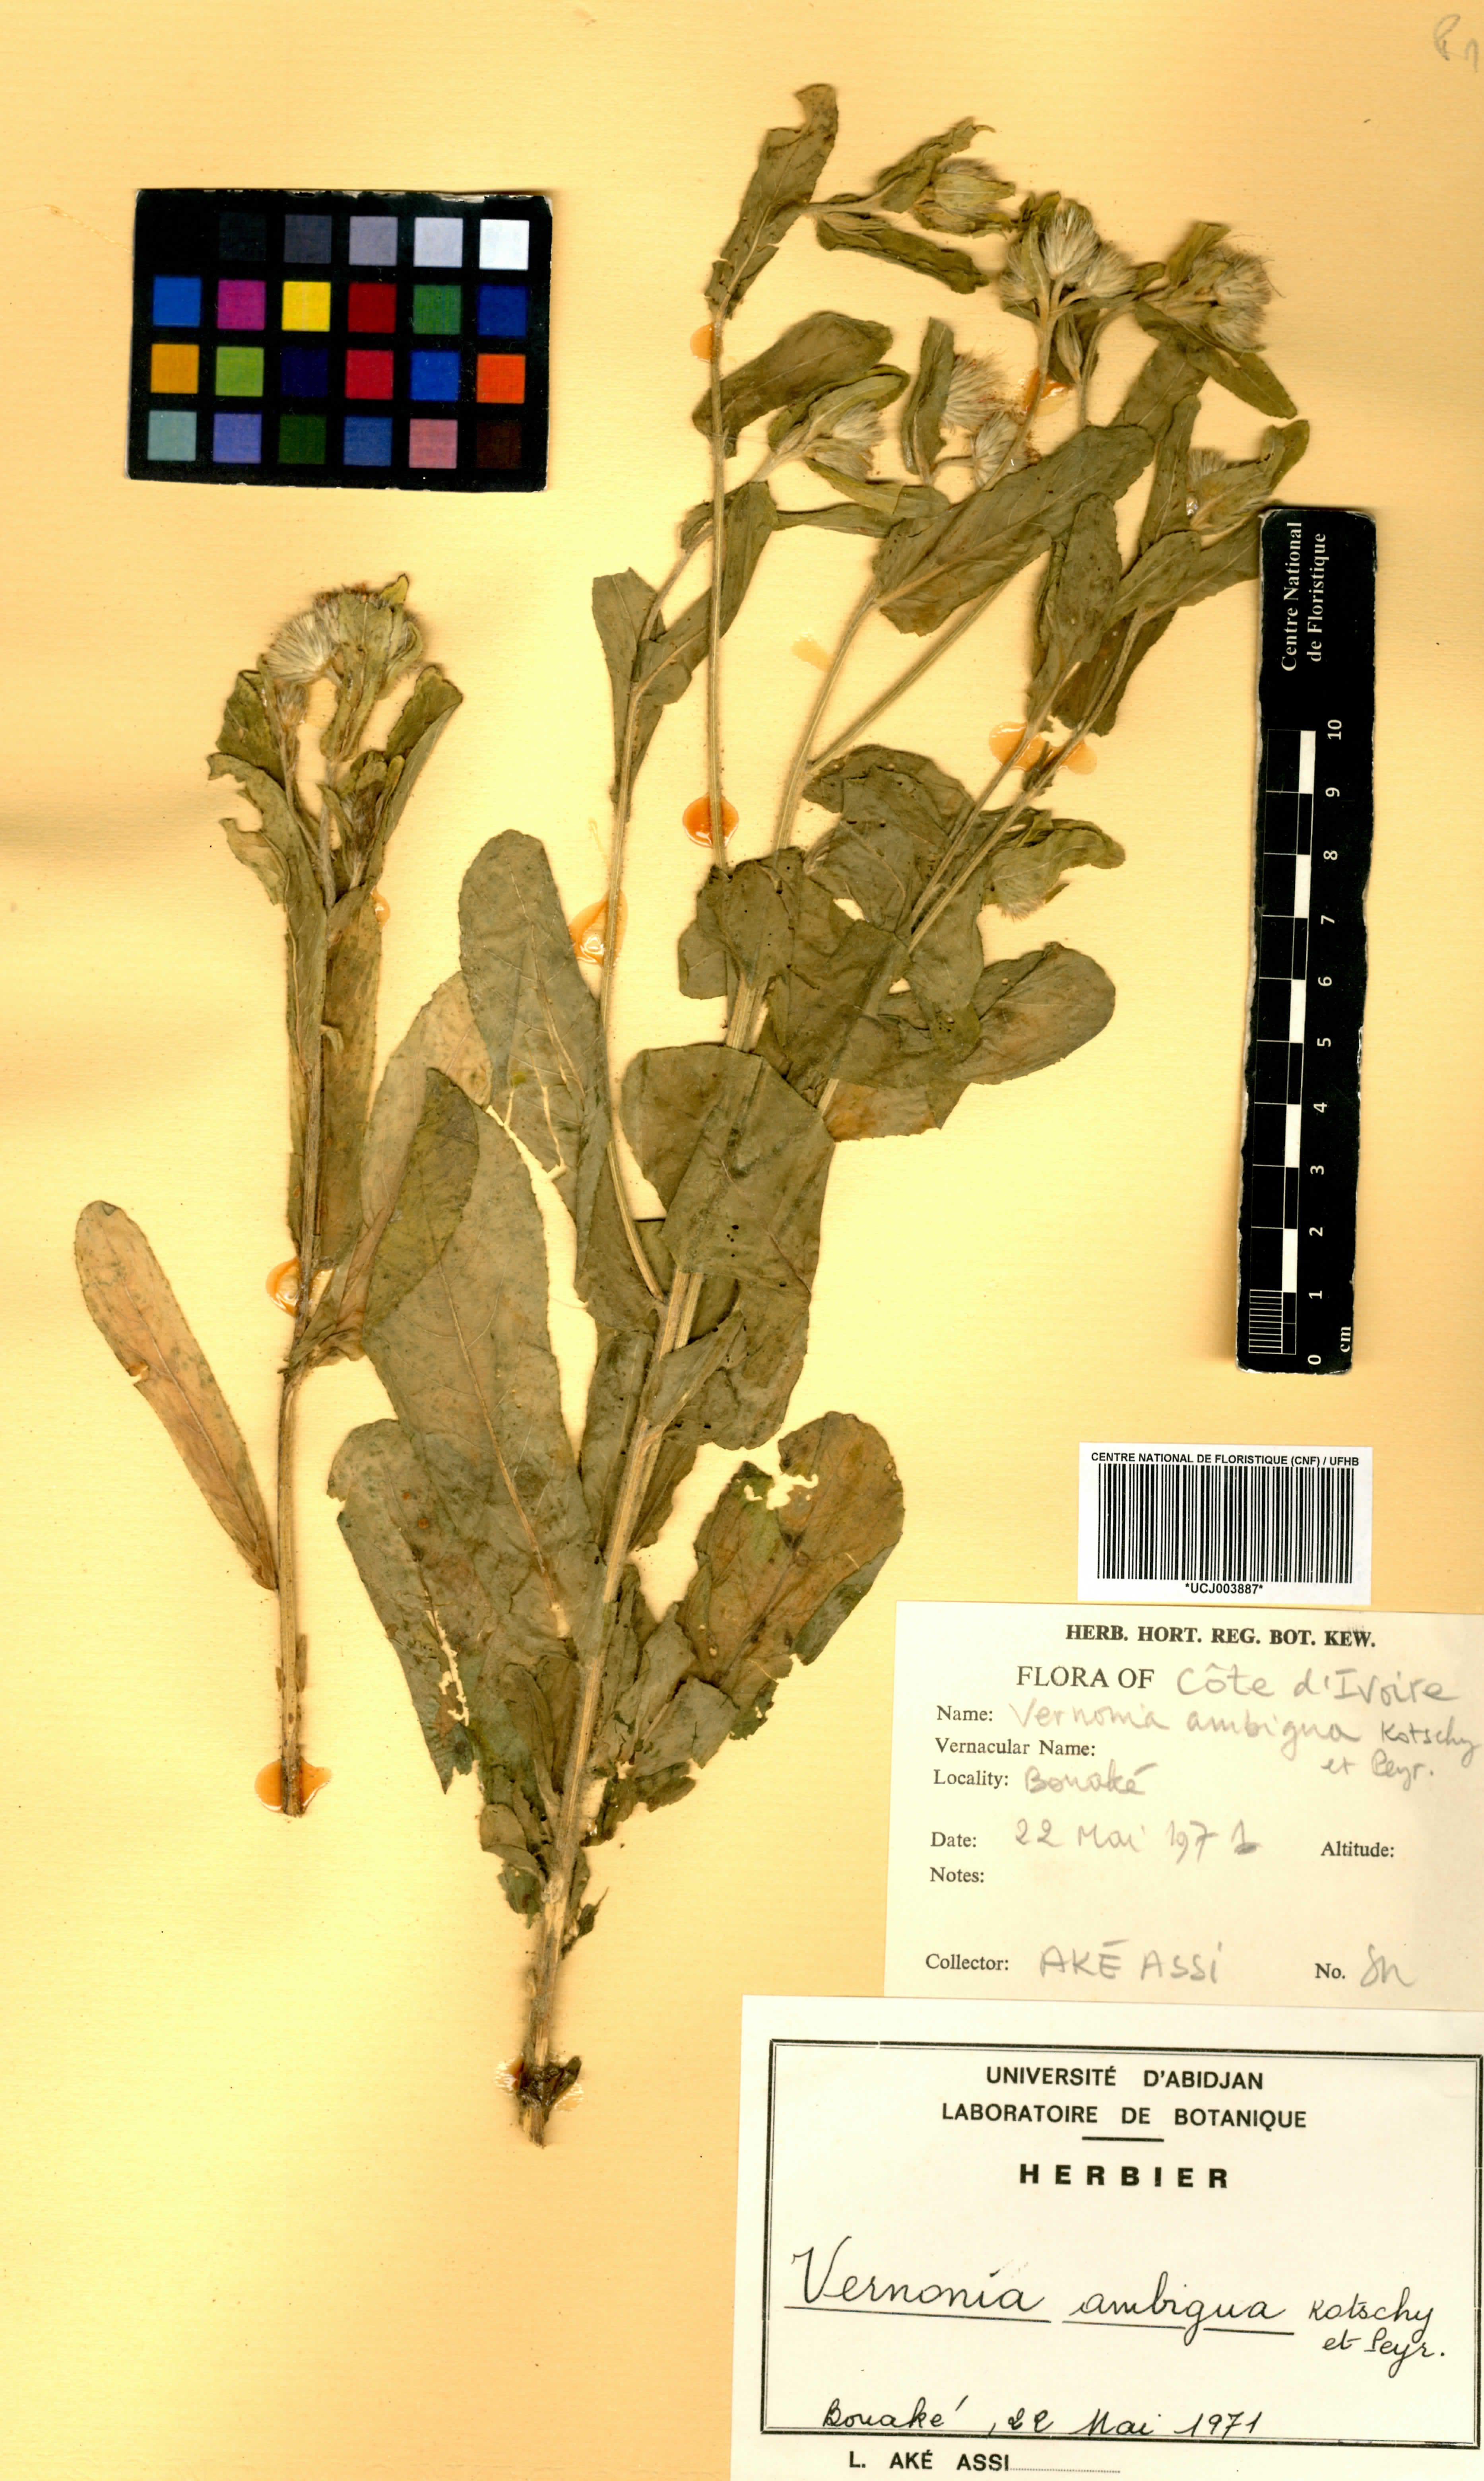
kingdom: Plantae
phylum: Tracheophyta
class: Magnoliopsida
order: Asterales
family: Asteraceae
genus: Vernoniastrum
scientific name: Vernoniastrum ambiguum
